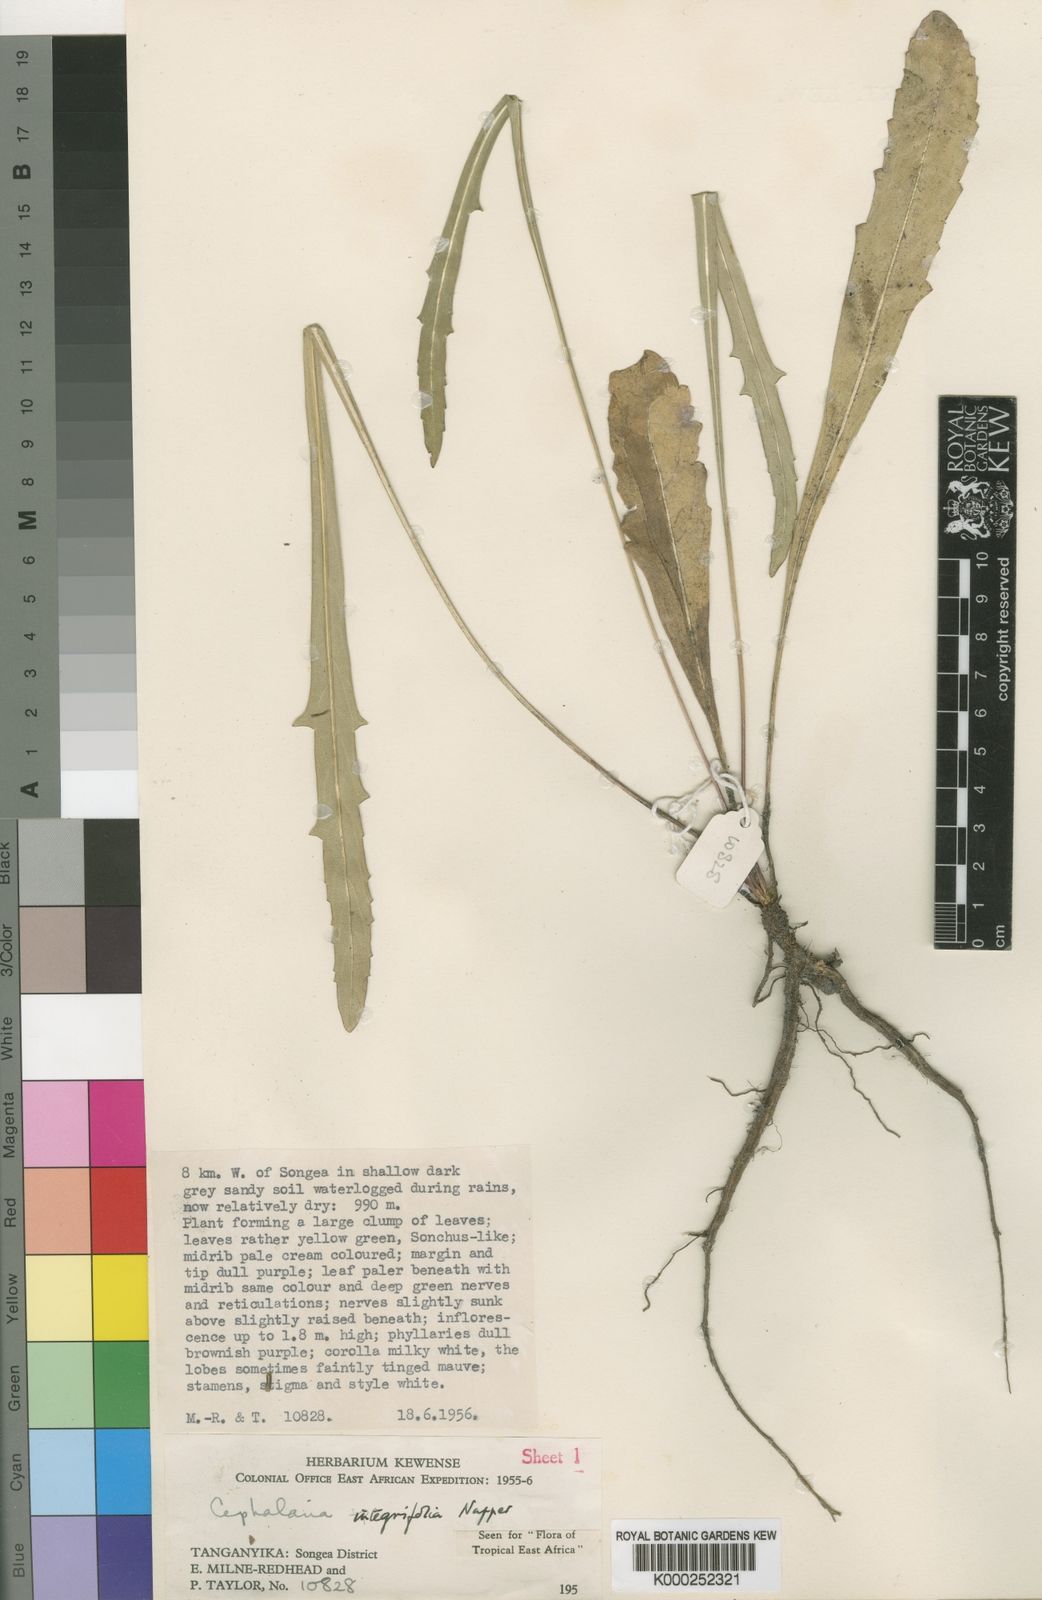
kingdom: Plantae
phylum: Tracheophyta
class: Magnoliopsida
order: Dipsacales
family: Caprifoliaceae
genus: Cephalaria
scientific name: Cephalaria integrifolia
